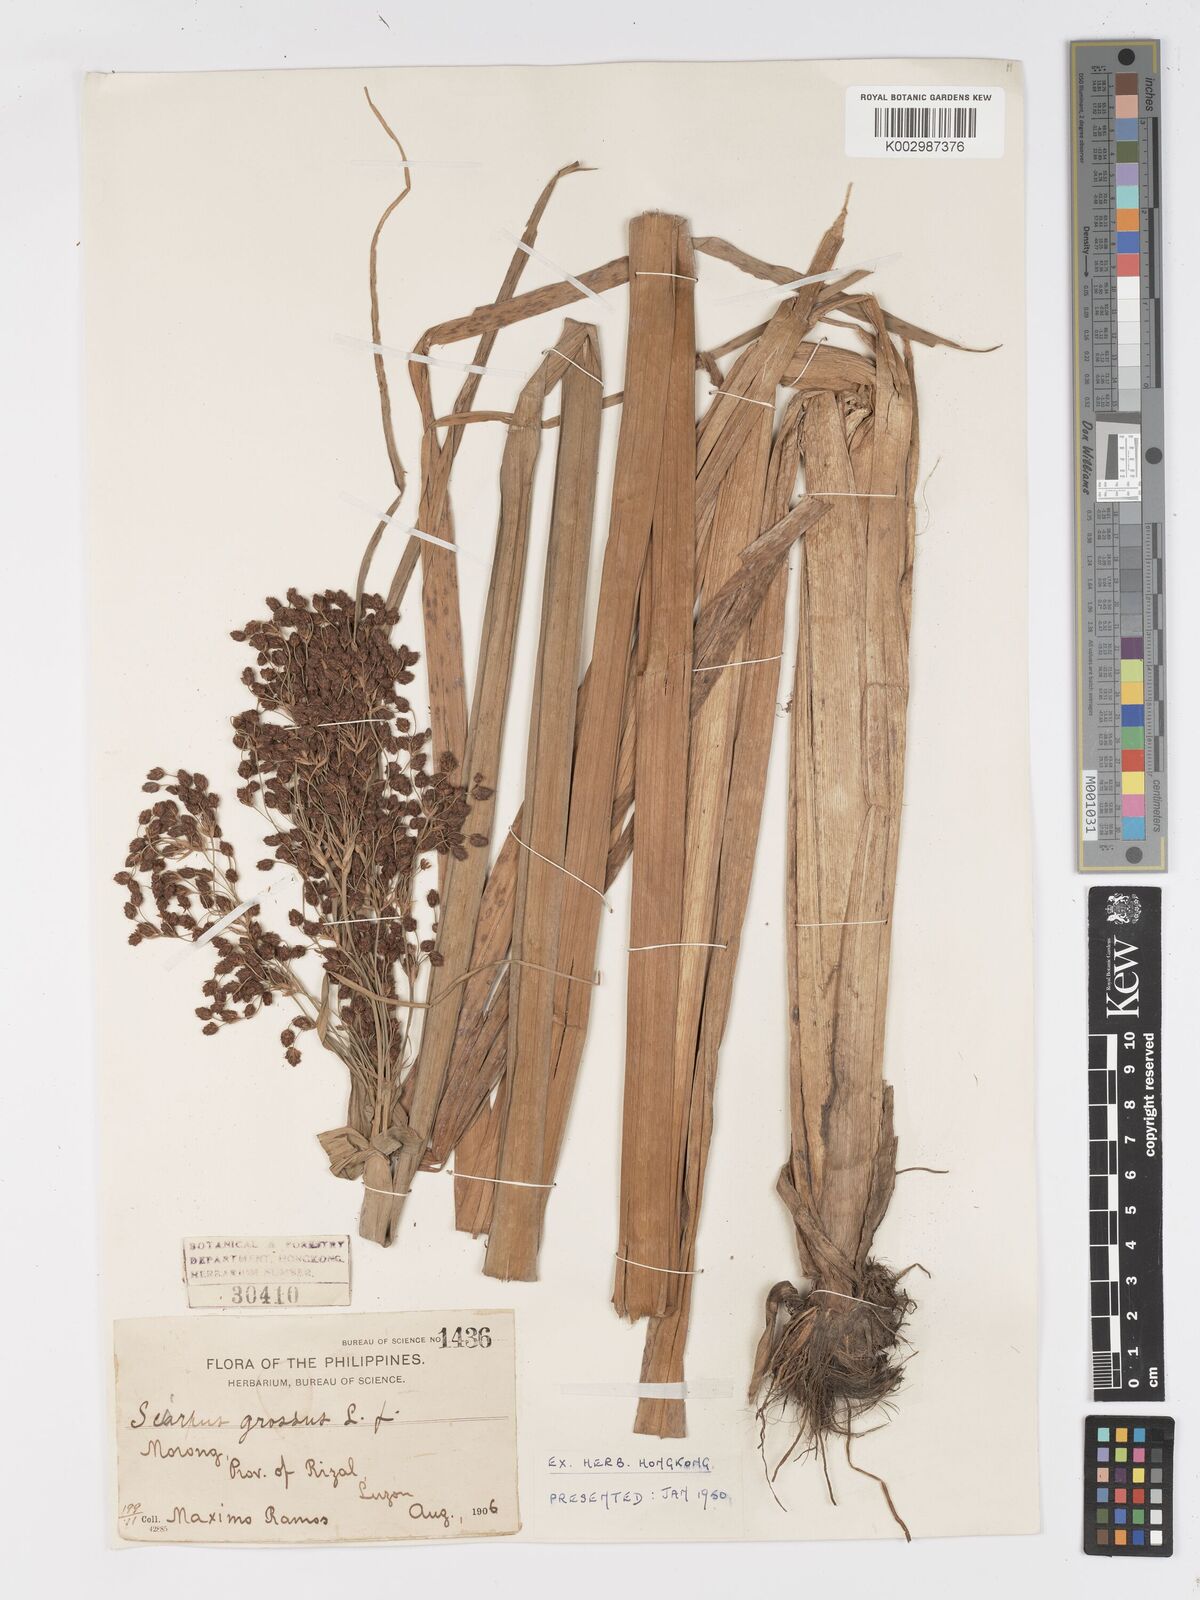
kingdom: Plantae
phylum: Tracheophyta
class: Liliopsida
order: Poales
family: Cyperaceae
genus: Actinoscirpus
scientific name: Actinoscirpus grossus
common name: Giant bur rush
